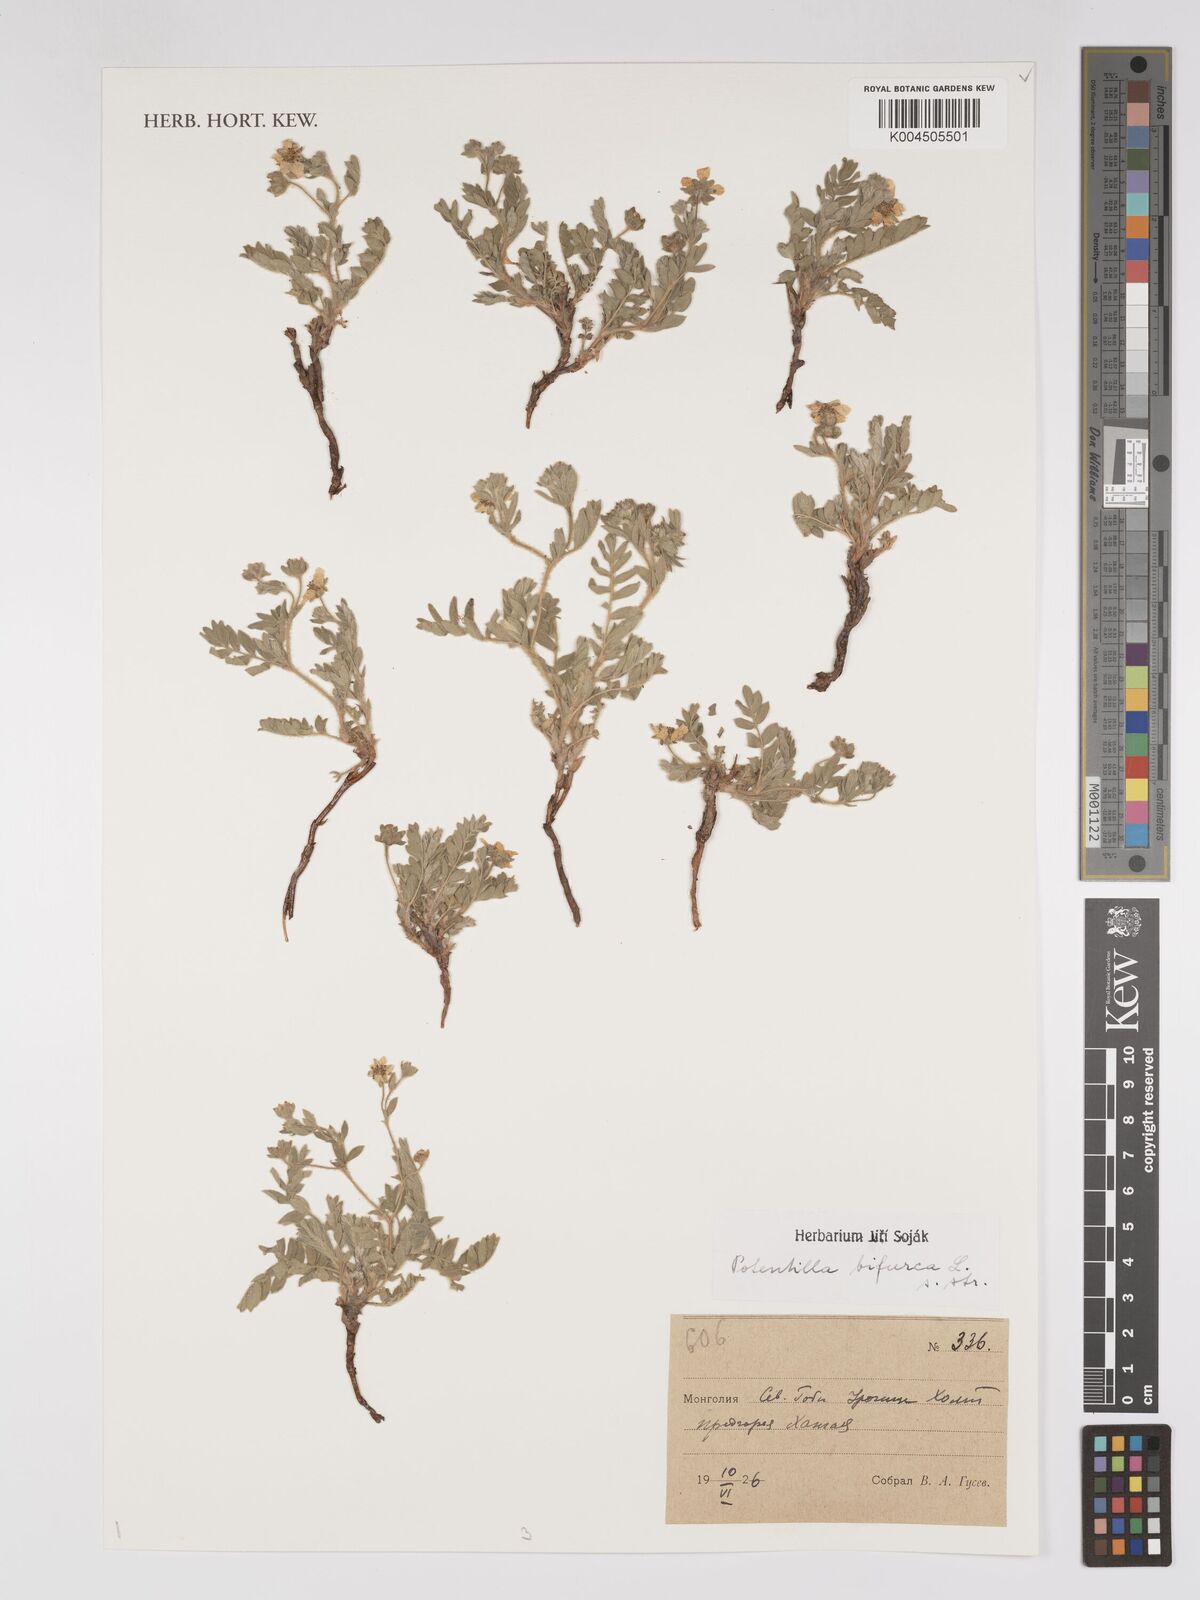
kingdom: Plantae
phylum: Tracheophyta
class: Magnoliopsida
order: Rosales
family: Rosaceae
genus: Sibbaldianthe
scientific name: Sibbaldianthe bifurca
